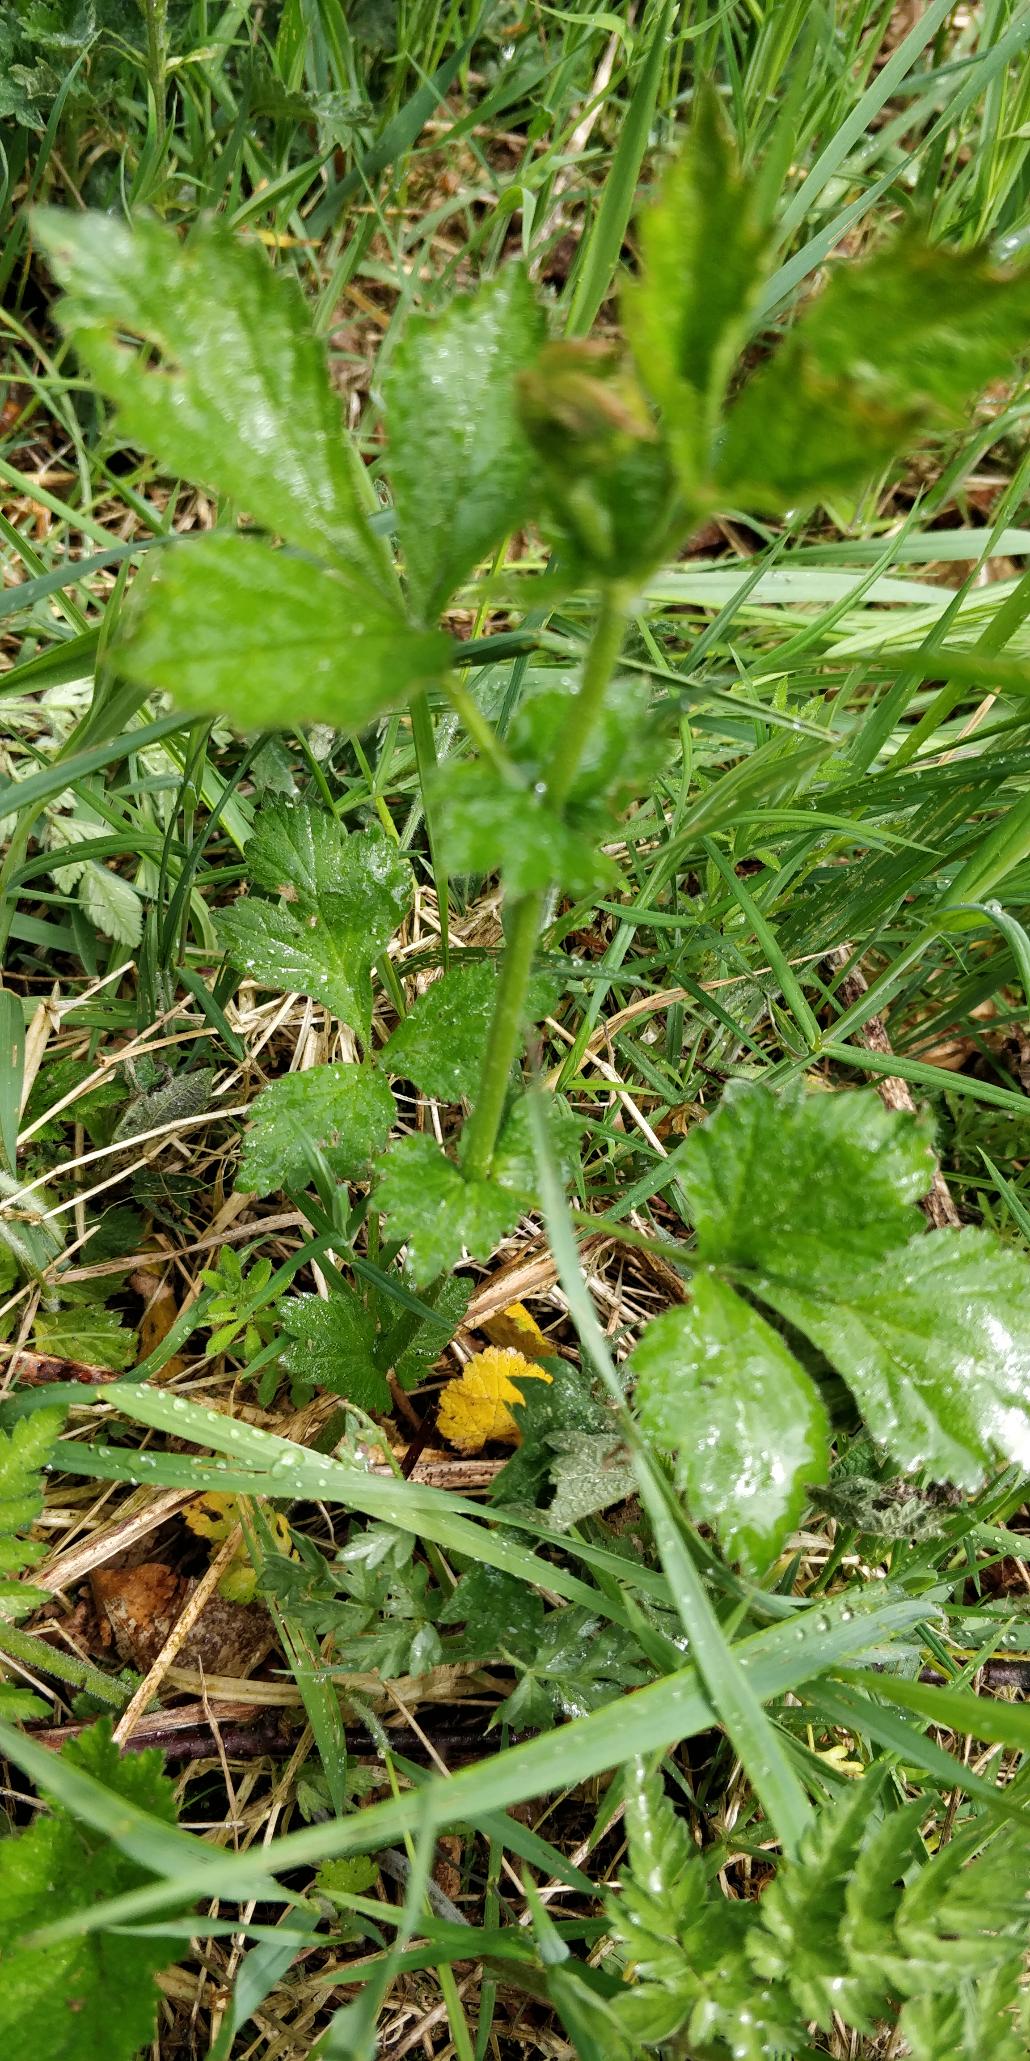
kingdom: Plantae
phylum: Tracheophyta
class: Magnoliopsida
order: Rosales
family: Rosaceae
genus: Geum
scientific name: Geum urbanum
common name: Feber-nellikerod
